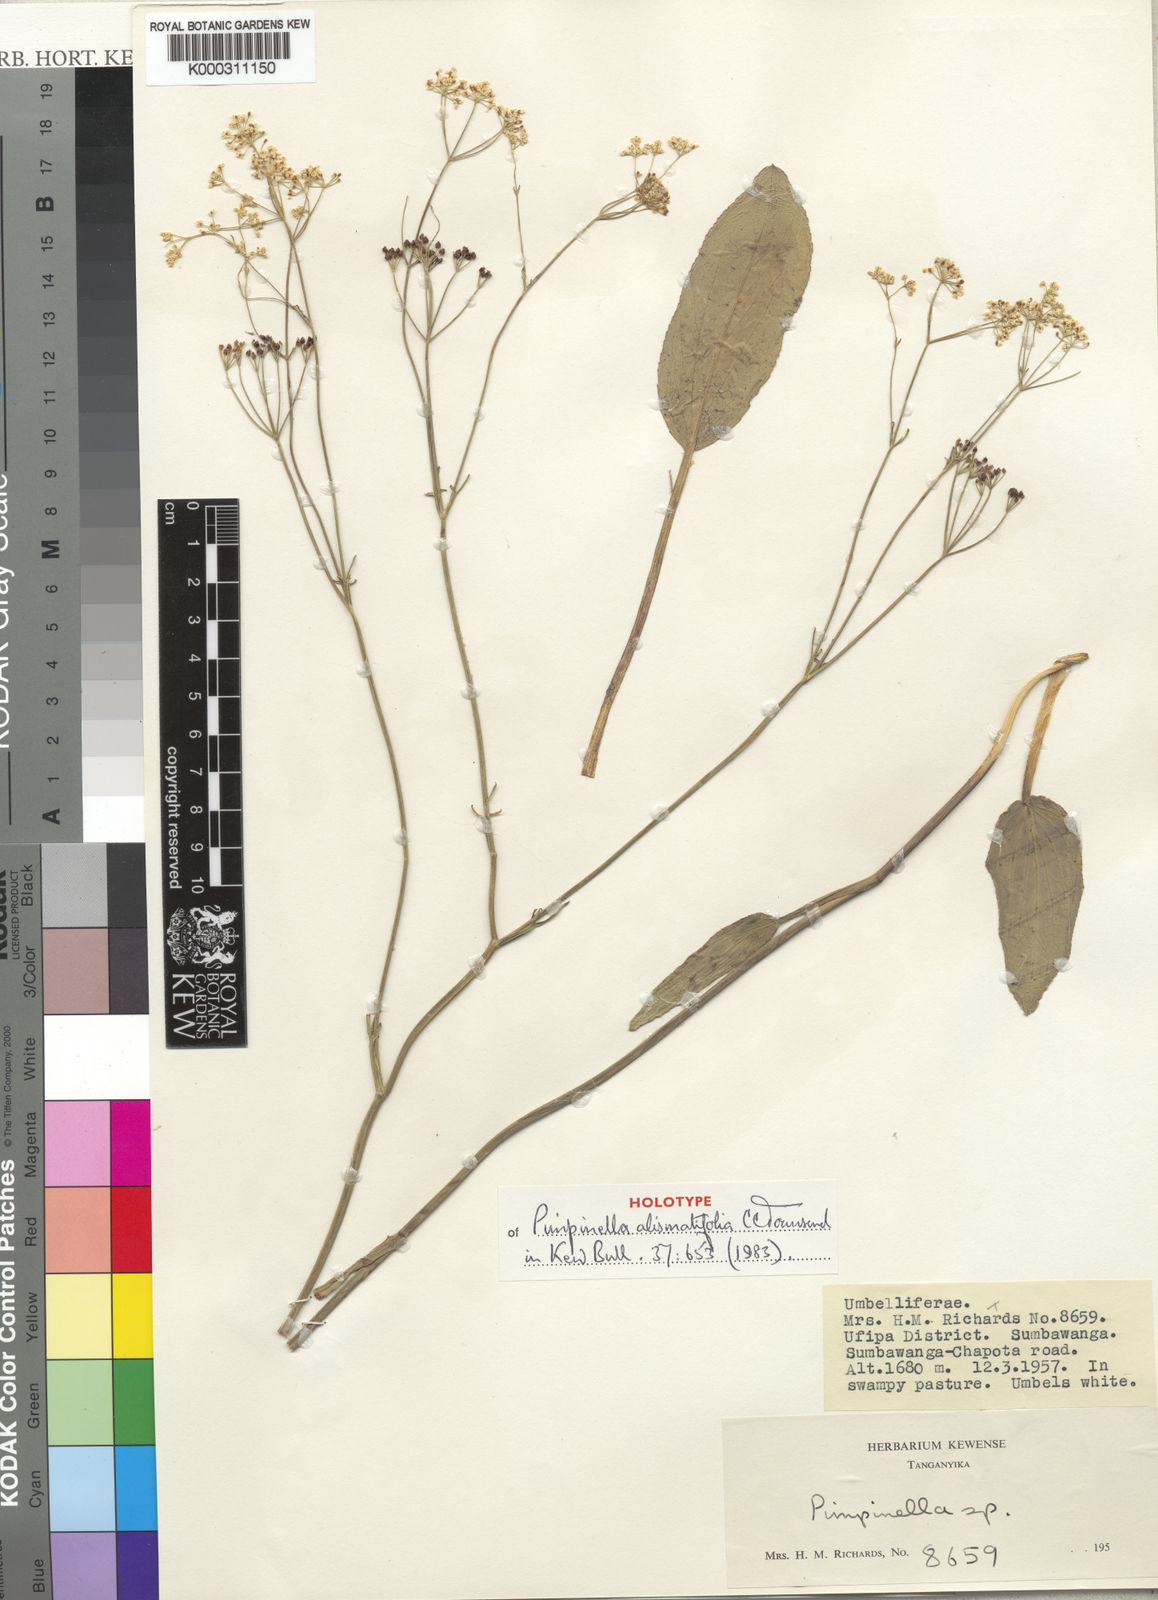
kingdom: Plantae
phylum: Tracheophyta
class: Magnoliopsida
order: Apiales
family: Apiaceae
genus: Pimpinella
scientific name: Pimpinella alismatifolia
